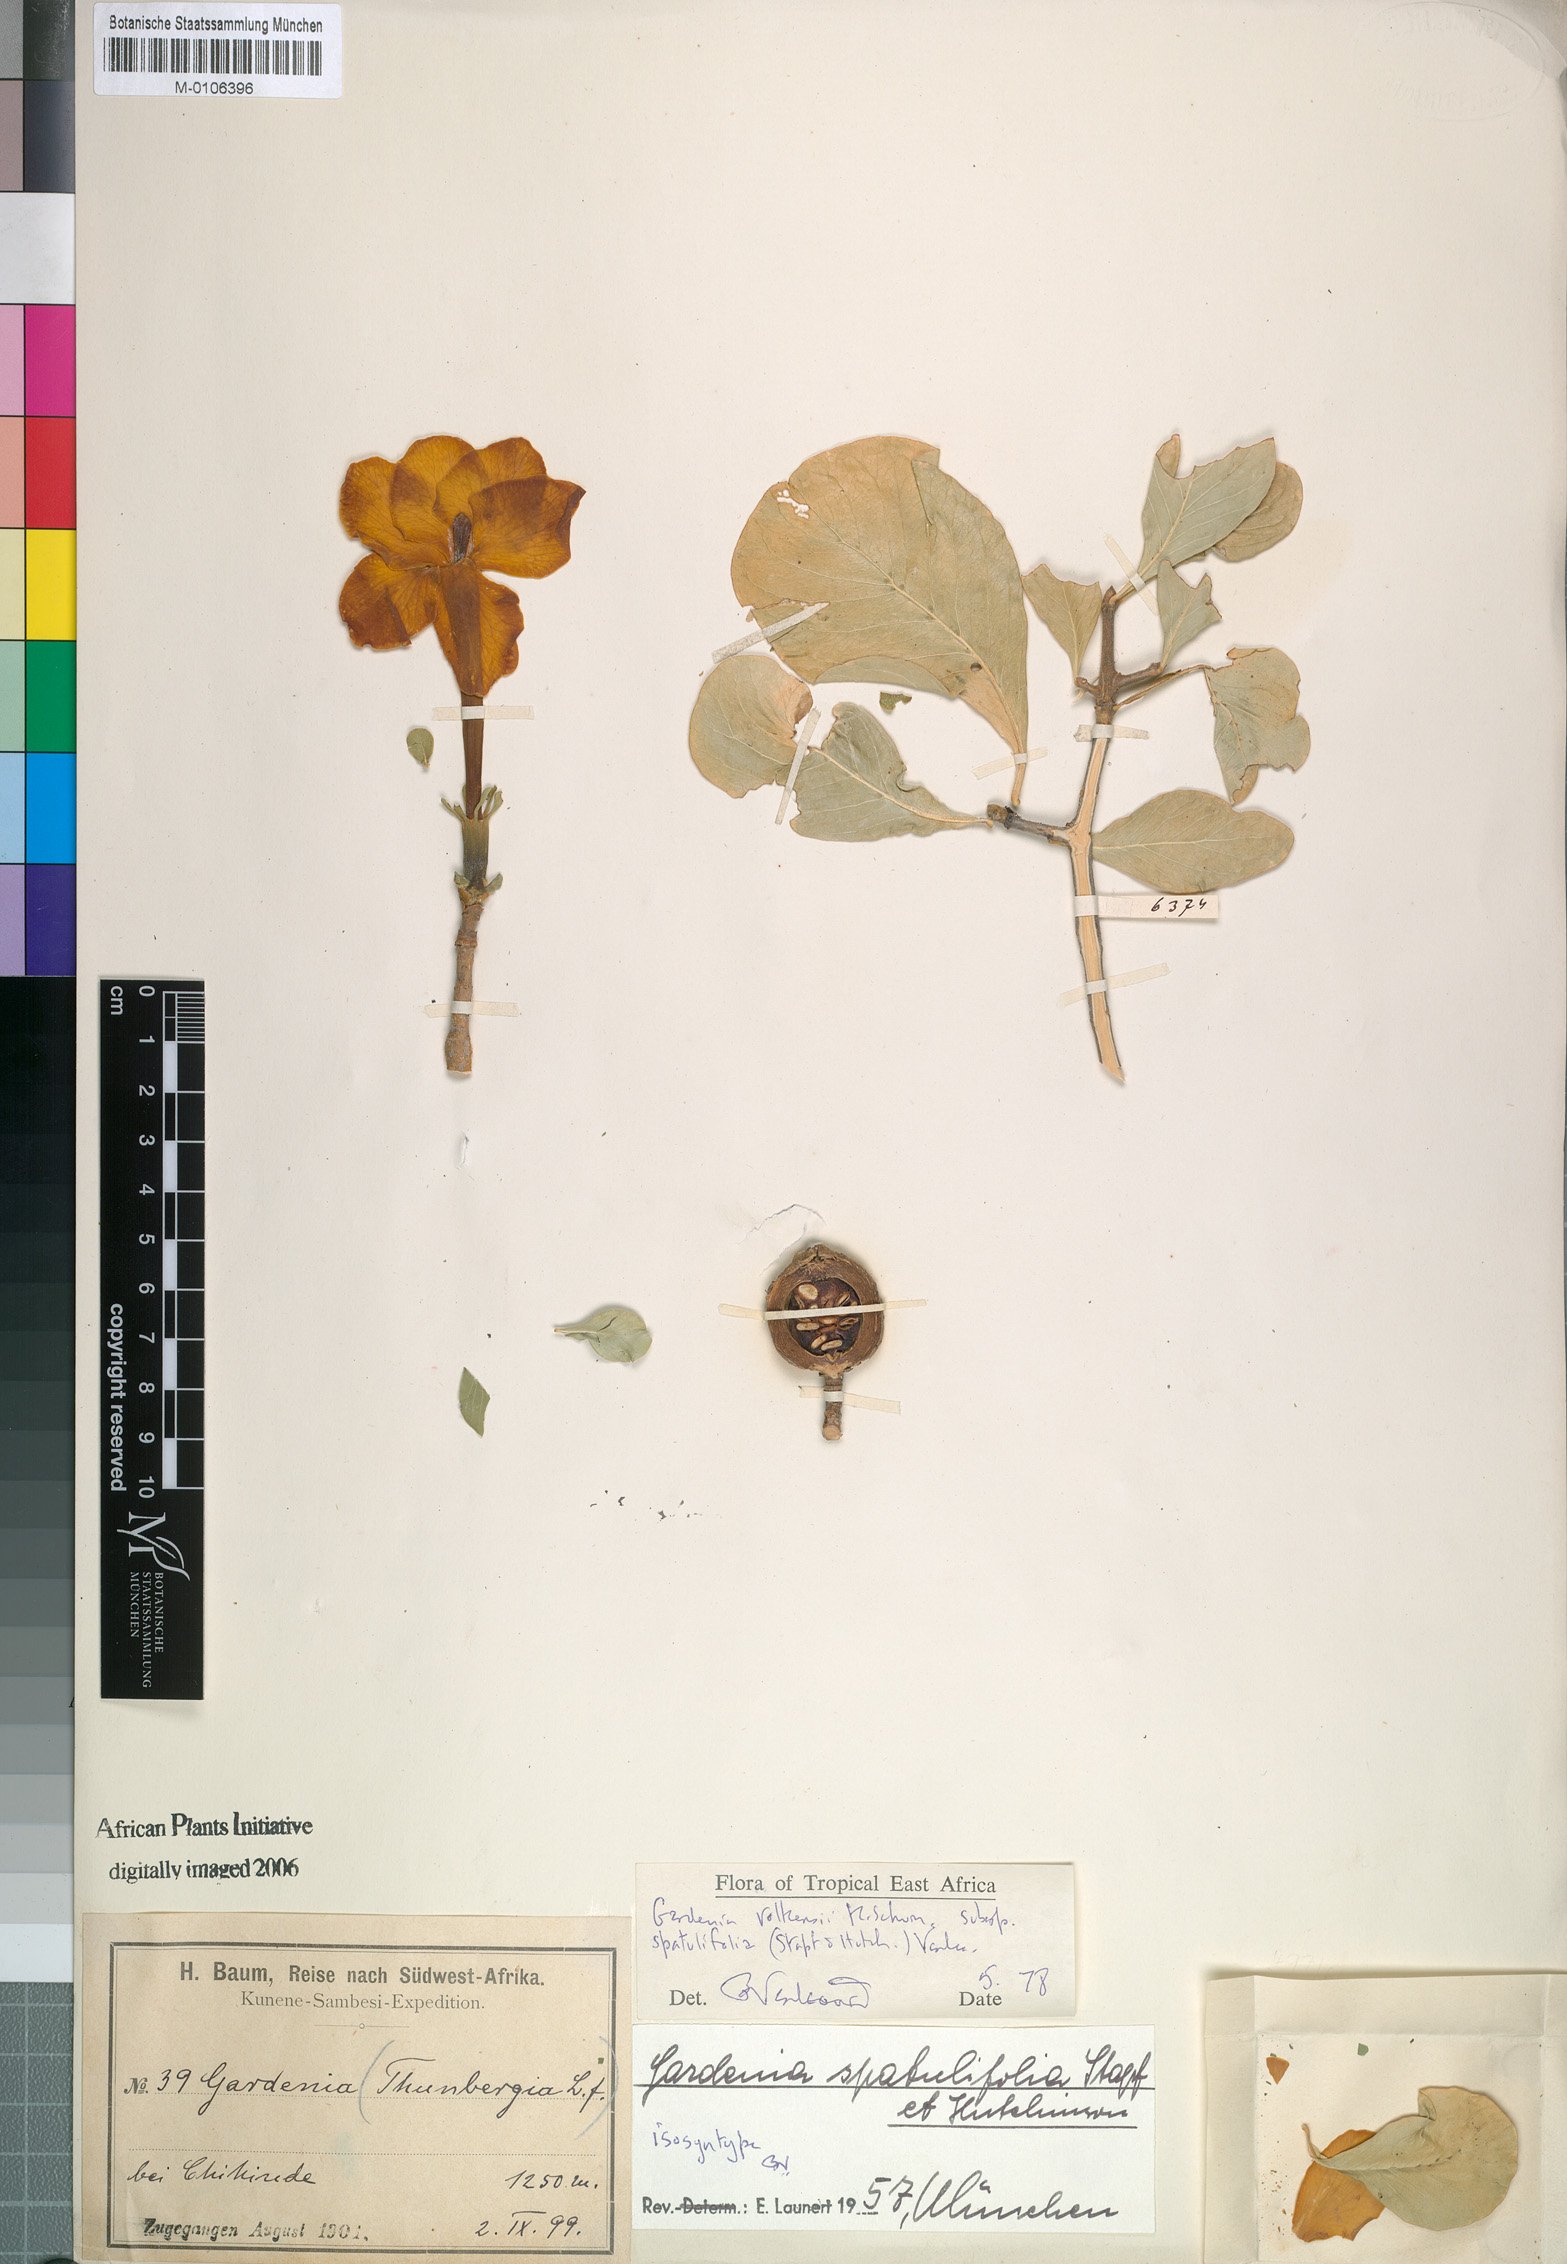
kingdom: Plantae
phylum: Tracheophyta
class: Magnoliopsida
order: Gentianales
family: Rubiaceae
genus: Gardenia
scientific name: Gardenia volkensii
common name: Common gardenia
